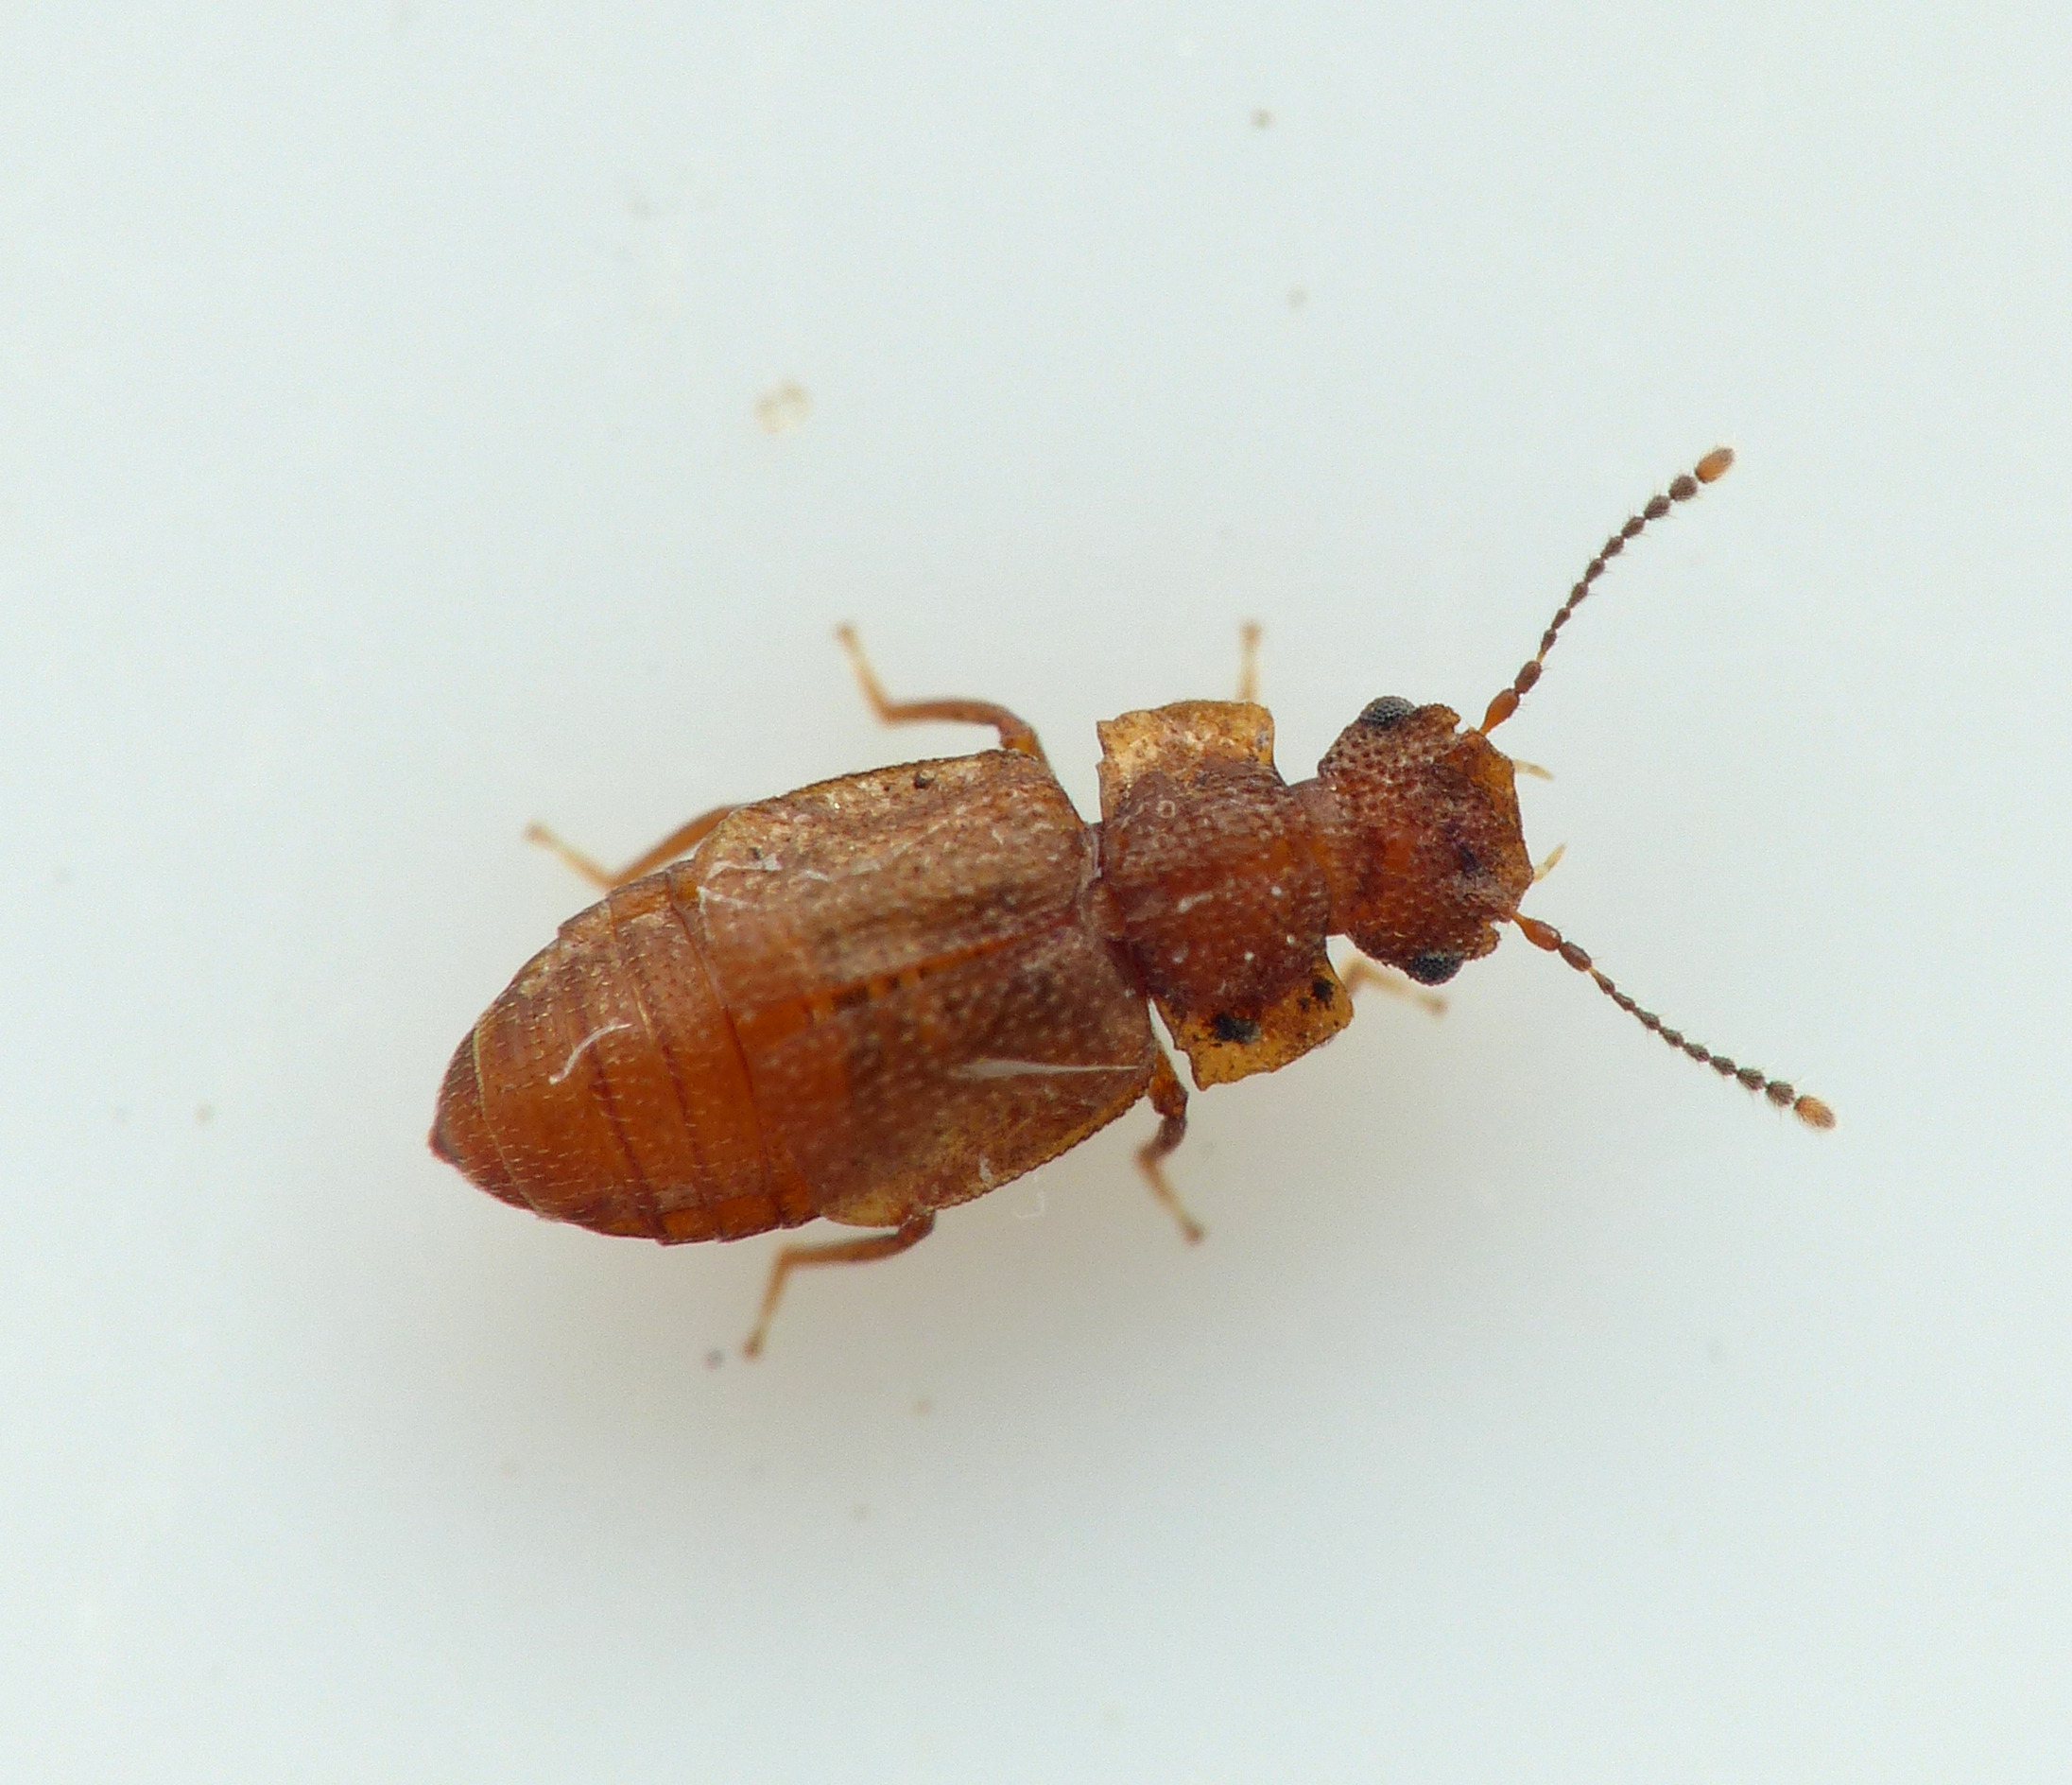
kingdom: Animalia
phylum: Arthropoda
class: Insecta
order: Coleoptera
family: Staphylinidae
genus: Metopsia
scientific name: Metopsia similis
